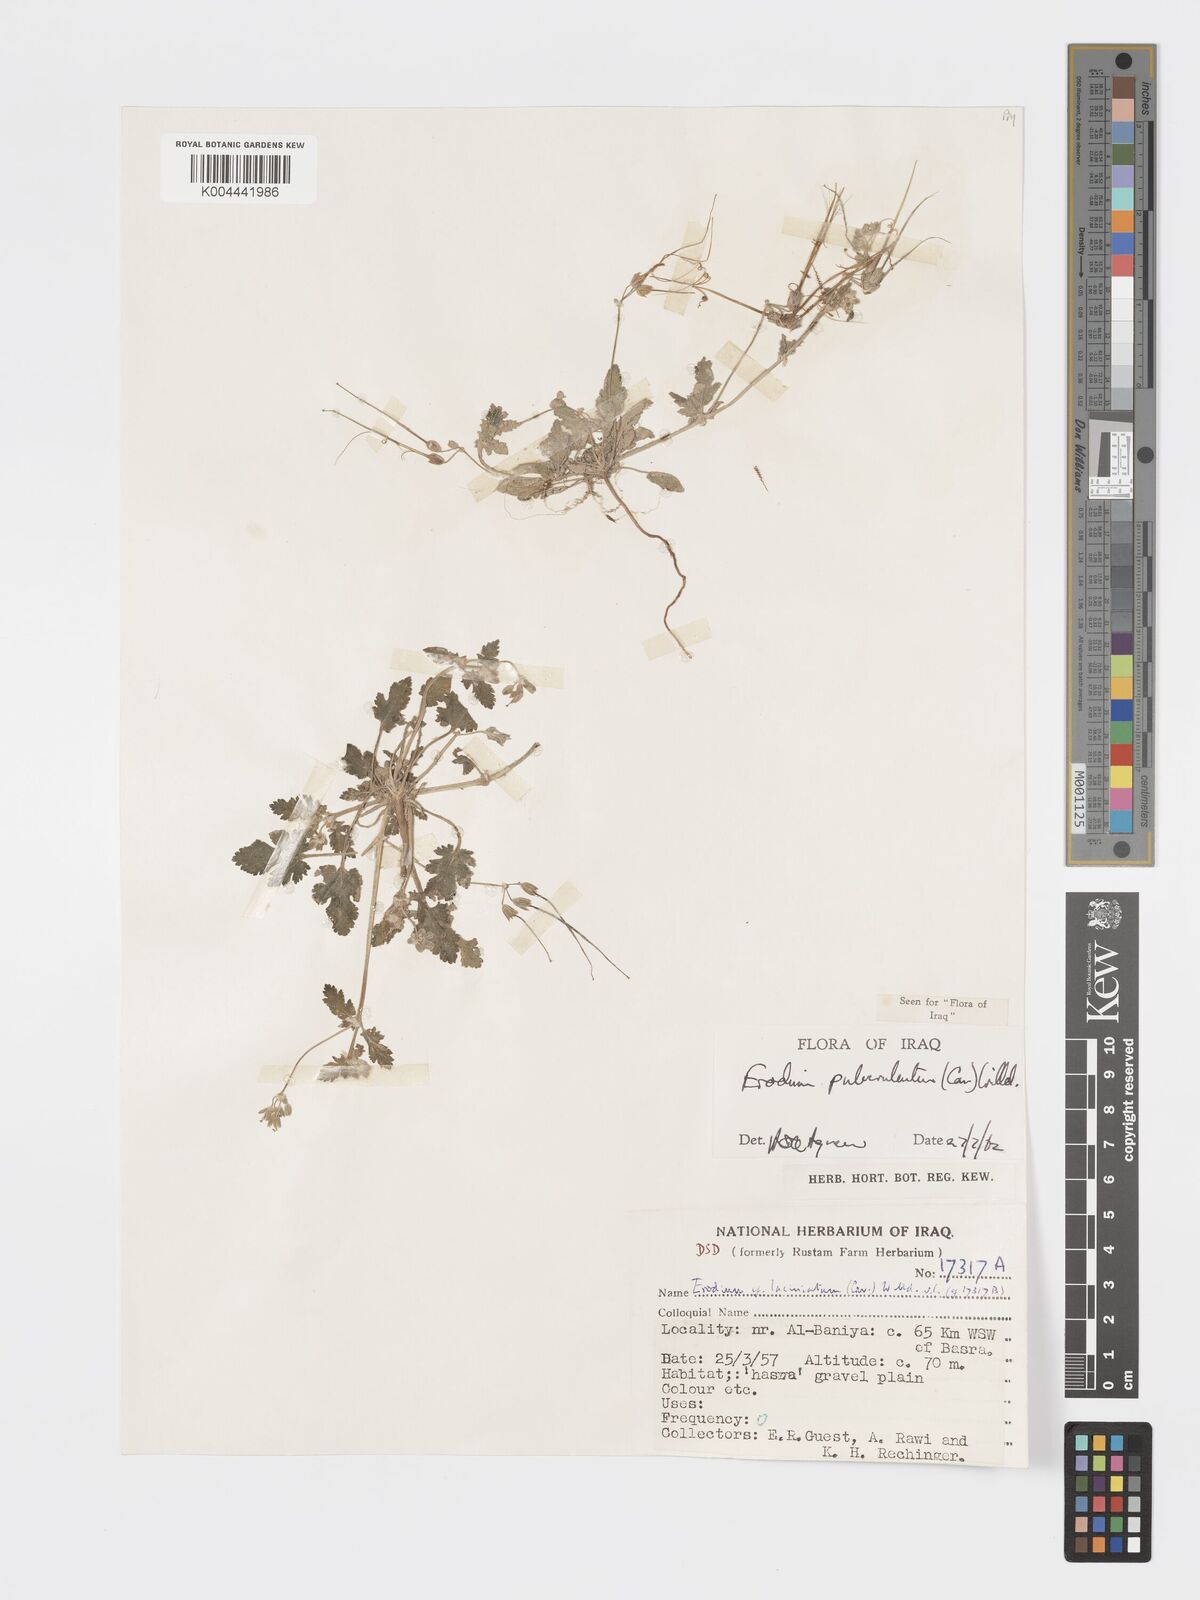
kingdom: Plantae
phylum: Tracheophyta
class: Magnoliopsida
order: Geraniales
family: Geraniaceae
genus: Erodium
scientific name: Erodium laciniatum
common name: Cutleaf stork's bill
